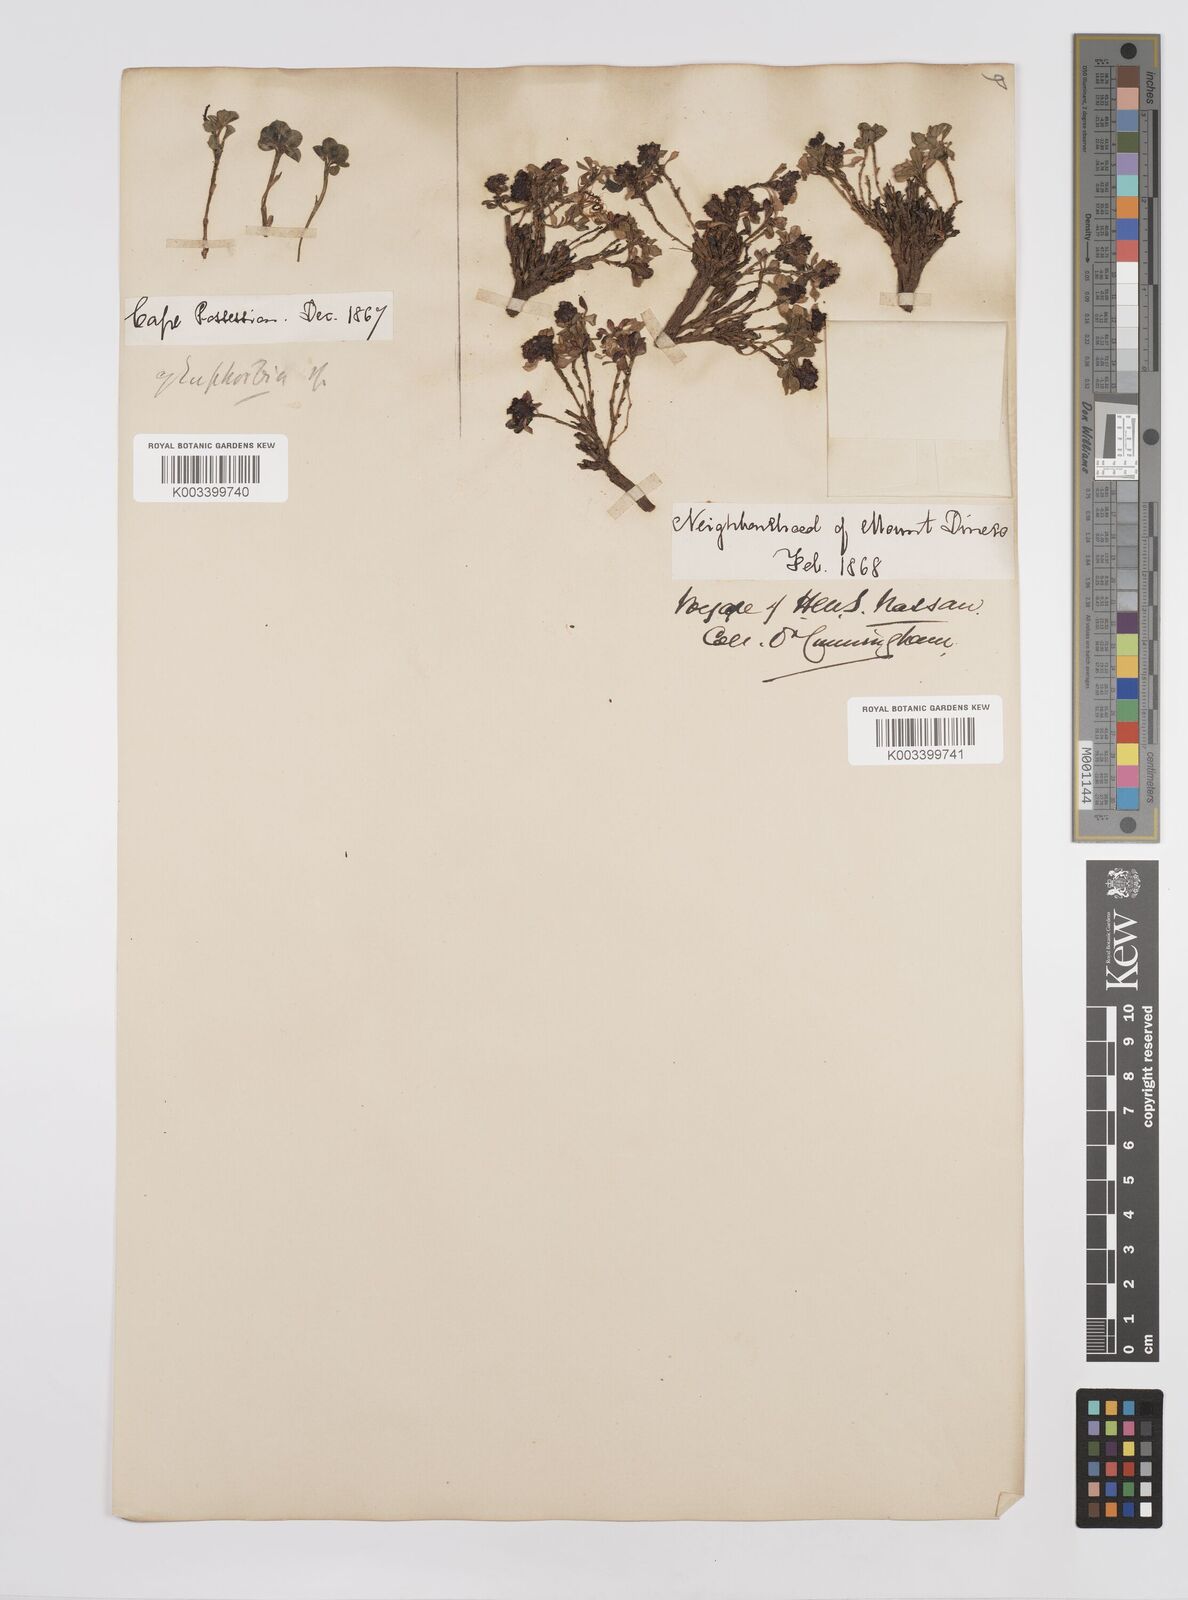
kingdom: Plantae
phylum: Tracheophyta
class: Magnoliopsida
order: Malpighiales
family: Euphorbiaceae
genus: Euphorbia
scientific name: Euphorbia
